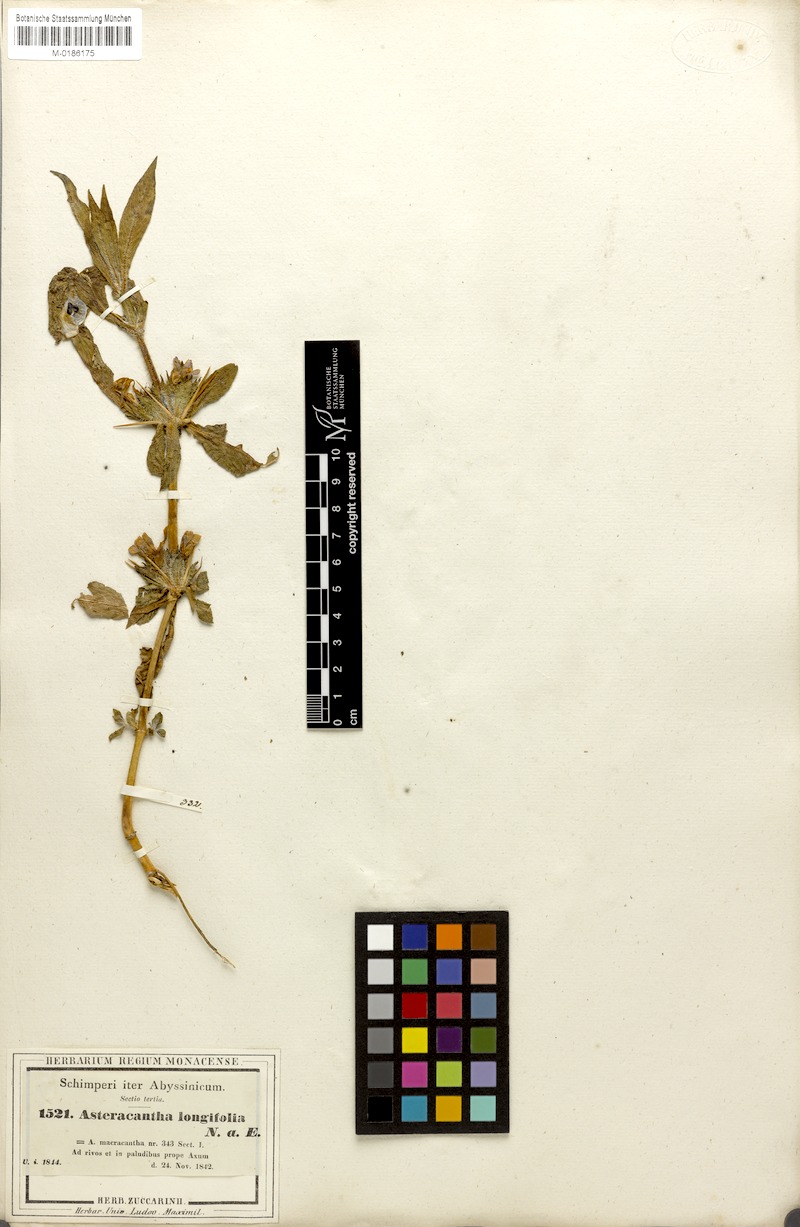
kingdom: Plantae
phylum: Tracheophyta
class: Magnoliopsida
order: Lamiales
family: Acanthaceae
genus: Hygrophila
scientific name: Hygrophila auriculata
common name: Hygrophila
